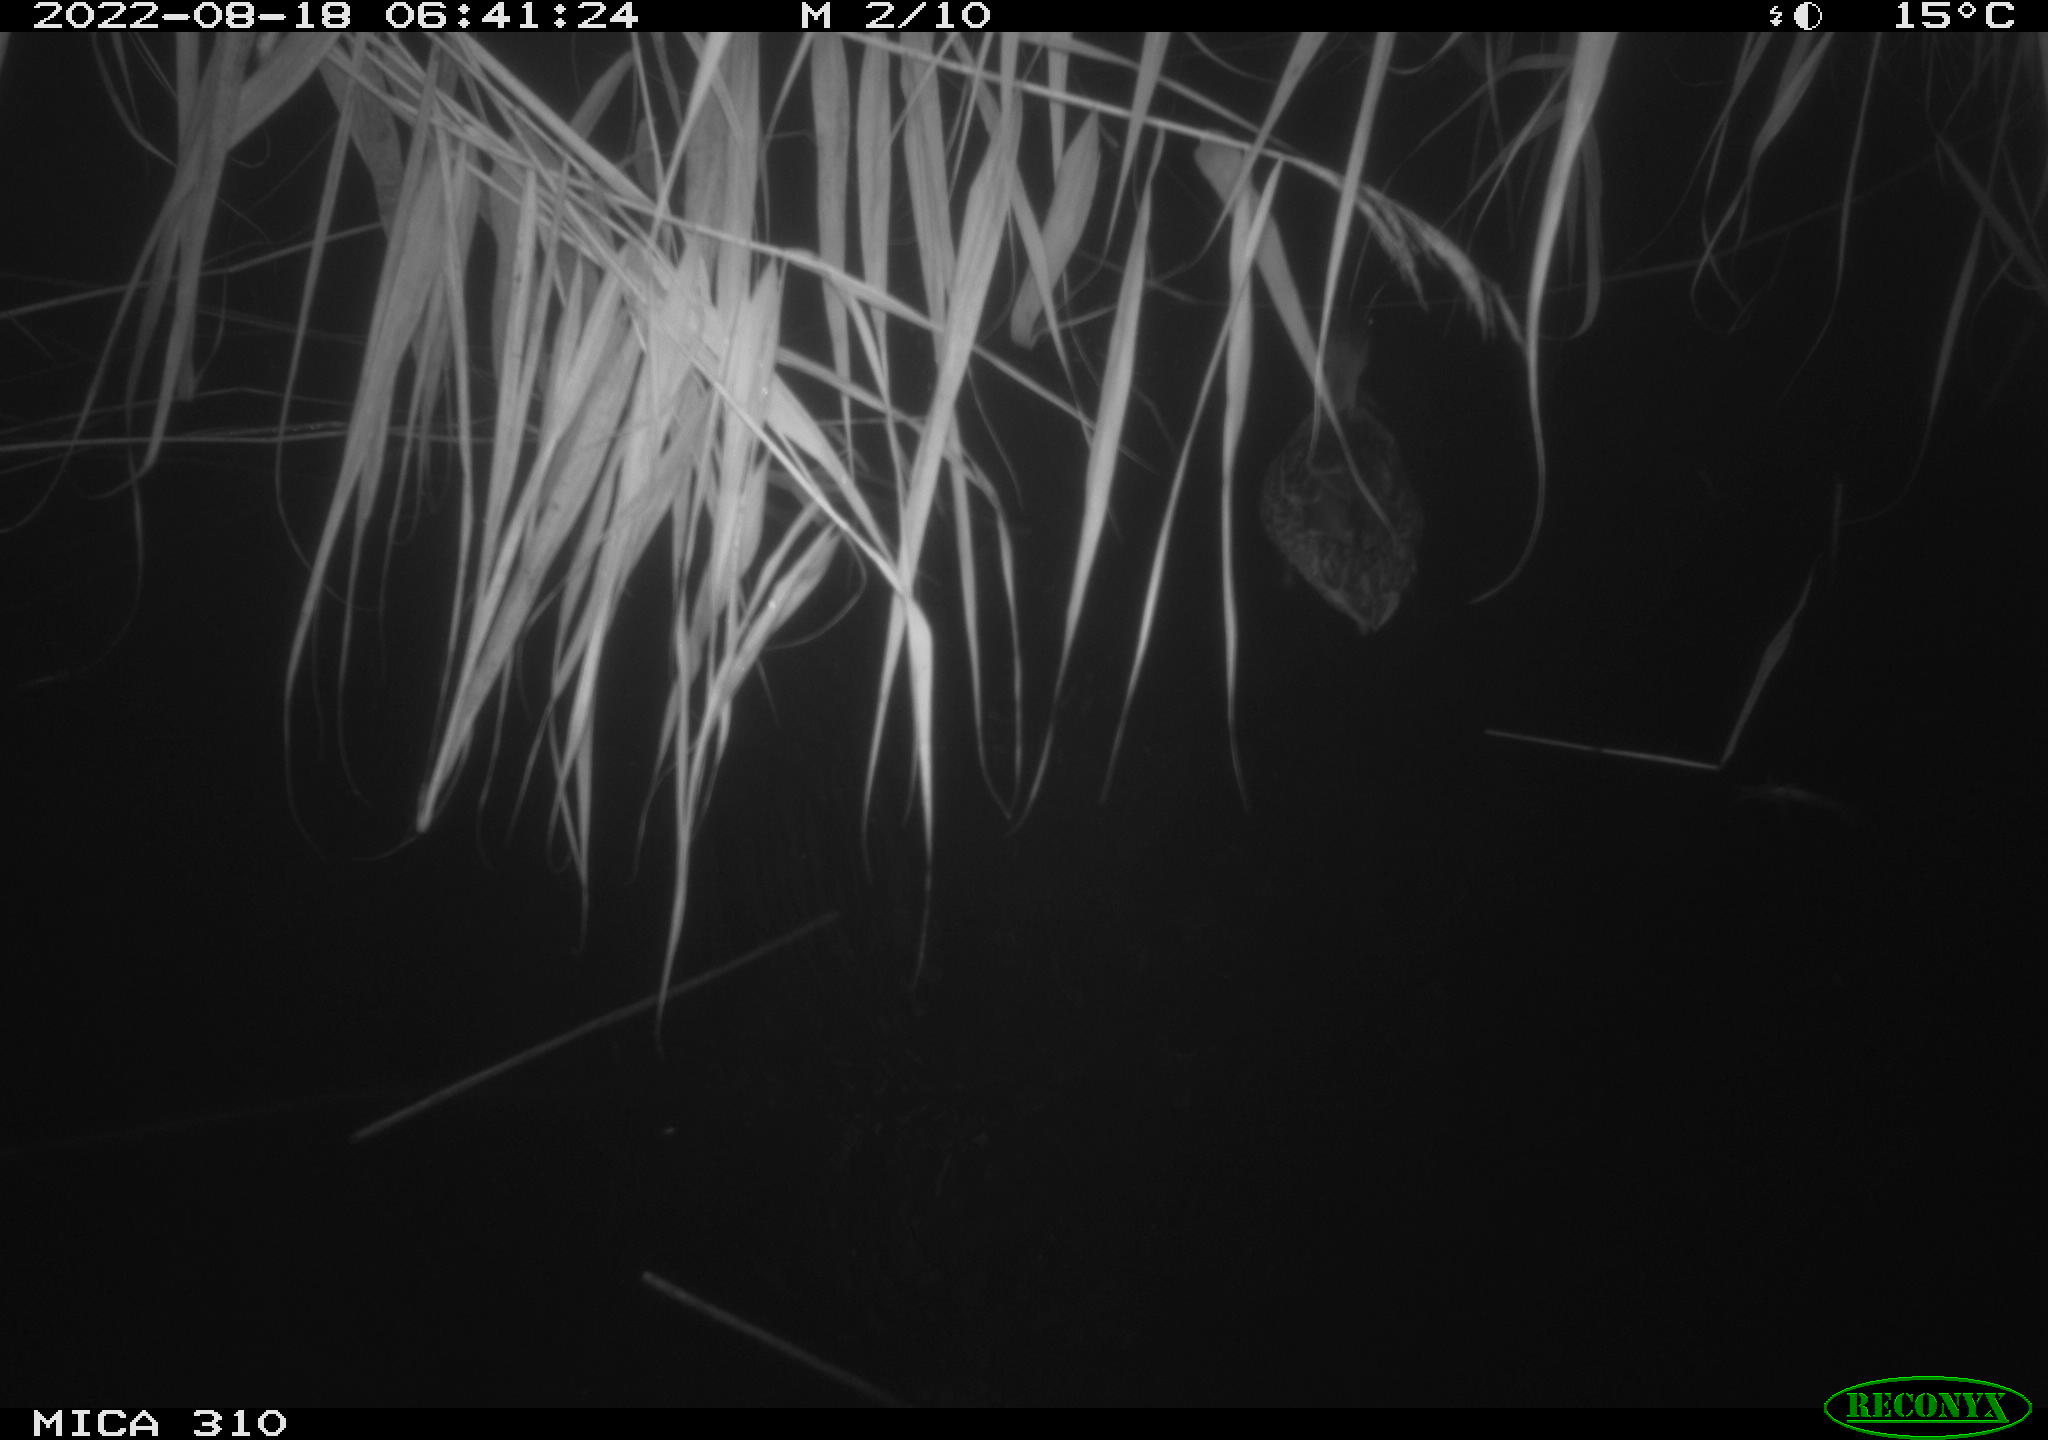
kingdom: Animalia
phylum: Chordata
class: Aves
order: Anseriformes
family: Anatidae
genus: Anas
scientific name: Anas platyrhynchos
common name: Mallard
